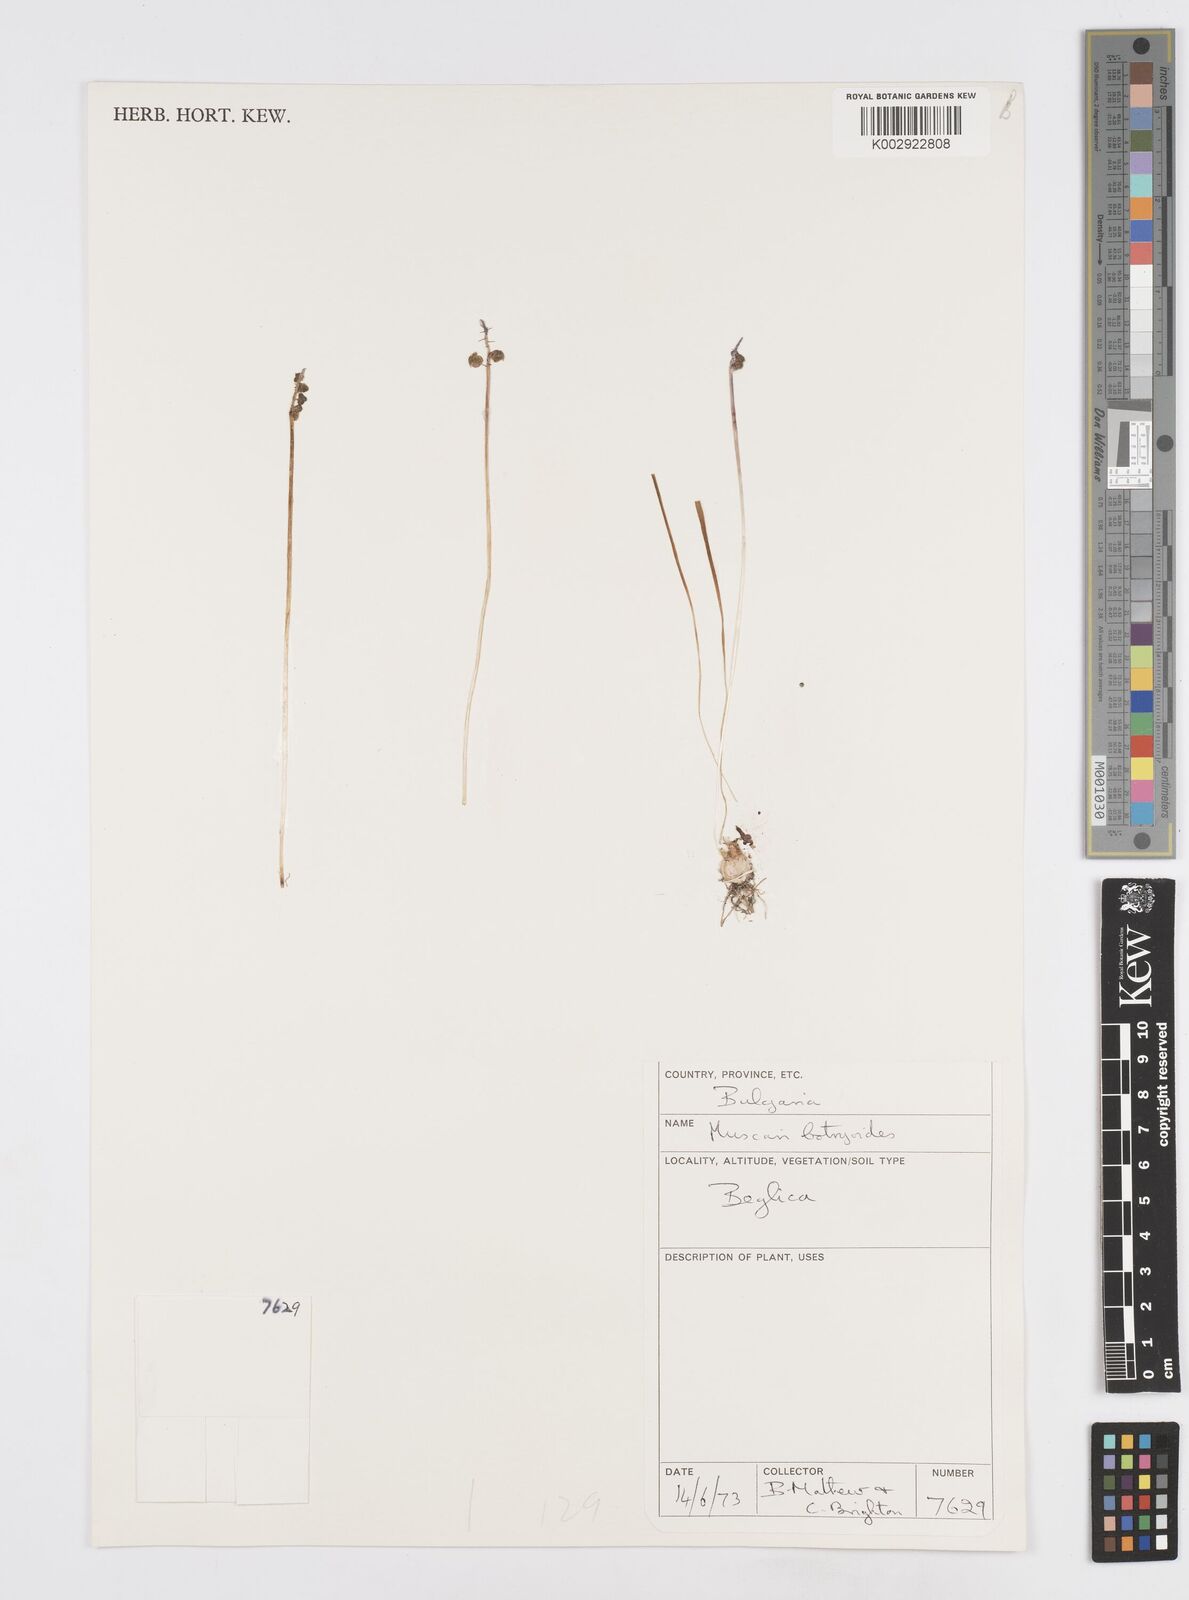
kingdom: Plantae
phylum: Tracheophyta
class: Liliopsida
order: Asparagales
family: Asparagaceae
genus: Muscari
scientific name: Muscari botryoides
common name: Compact grape-hyacinth
